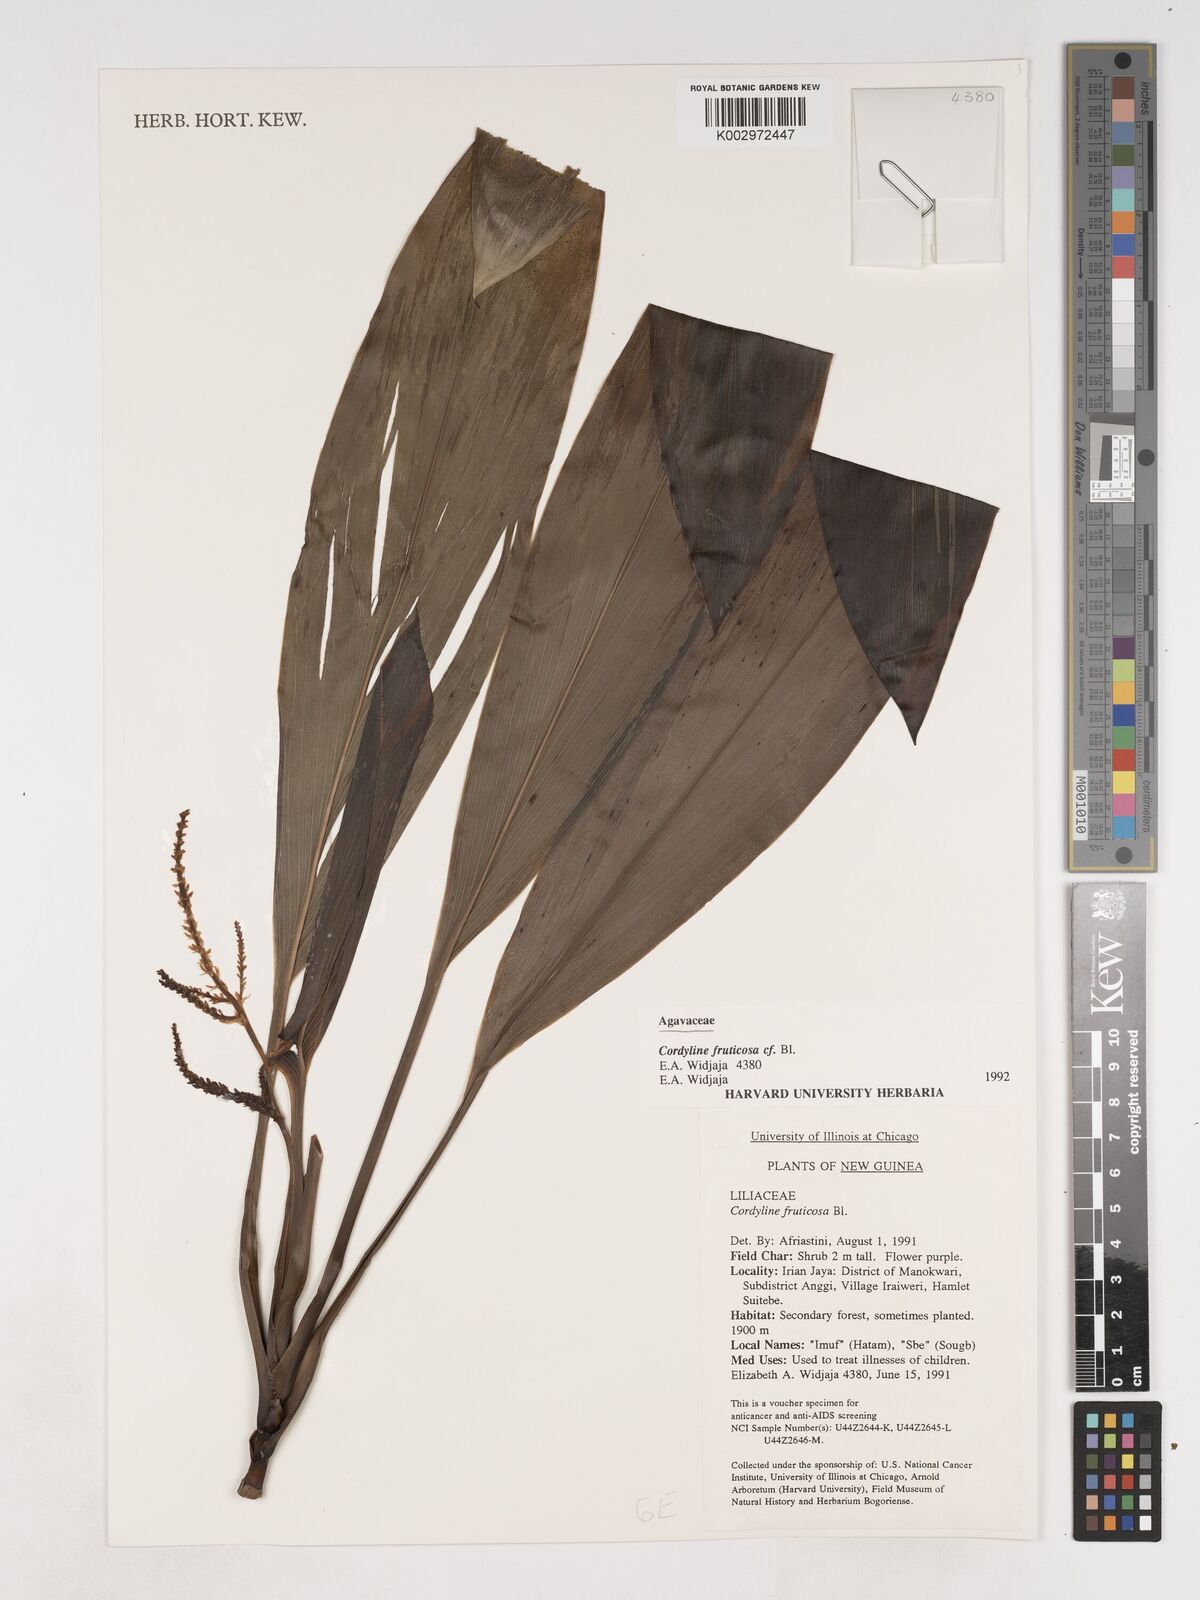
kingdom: Plantae
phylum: Tracheophyta
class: Liliopsida
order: Asparagales
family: Asparagaceae
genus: Cordyline
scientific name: Cordyline fruticosa
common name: Good-luck-plant
